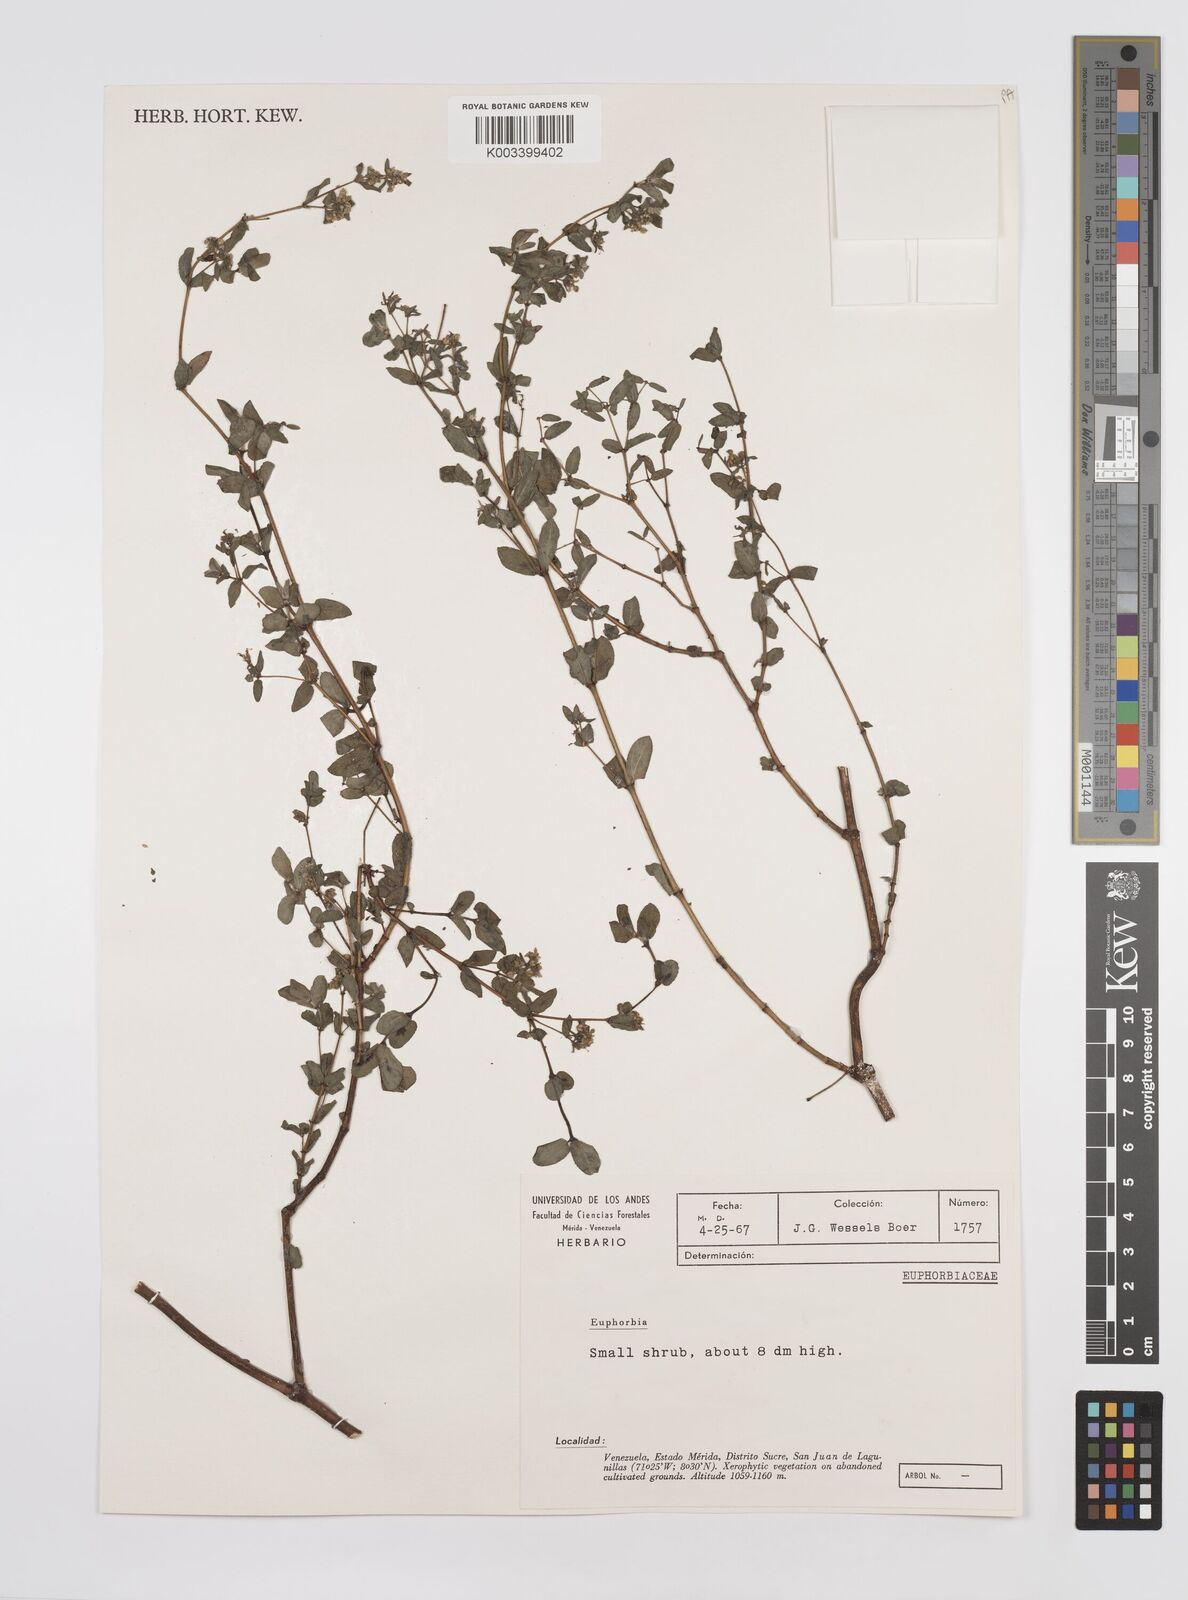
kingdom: Plantae
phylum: Tracheophyta
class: Magnoliopsida
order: Malpighiales
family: Euphorbiaceae
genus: Euphorbia
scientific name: Euphorbia
